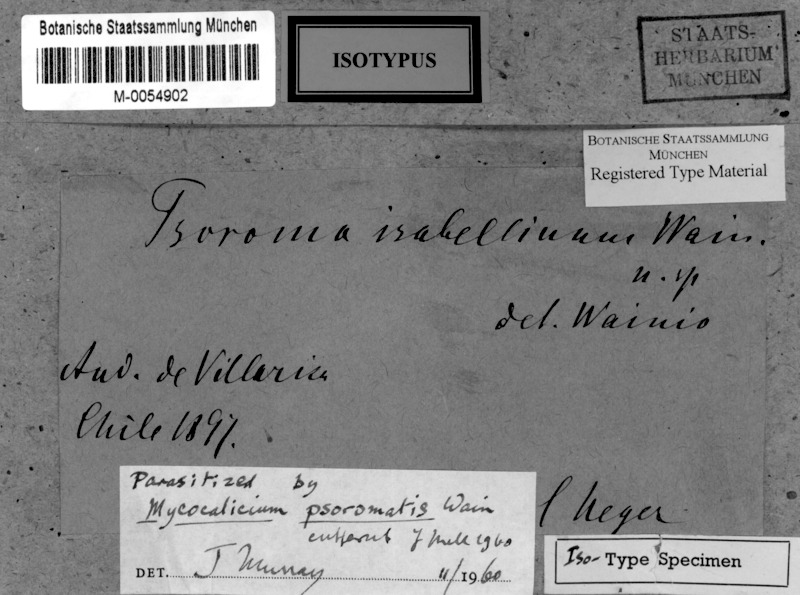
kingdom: Fungi
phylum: Ascomycota
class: Lecanoromycetes
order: Peltigerales
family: Pannariaceae
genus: Phormopsora
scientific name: Phormopsora isabellina
